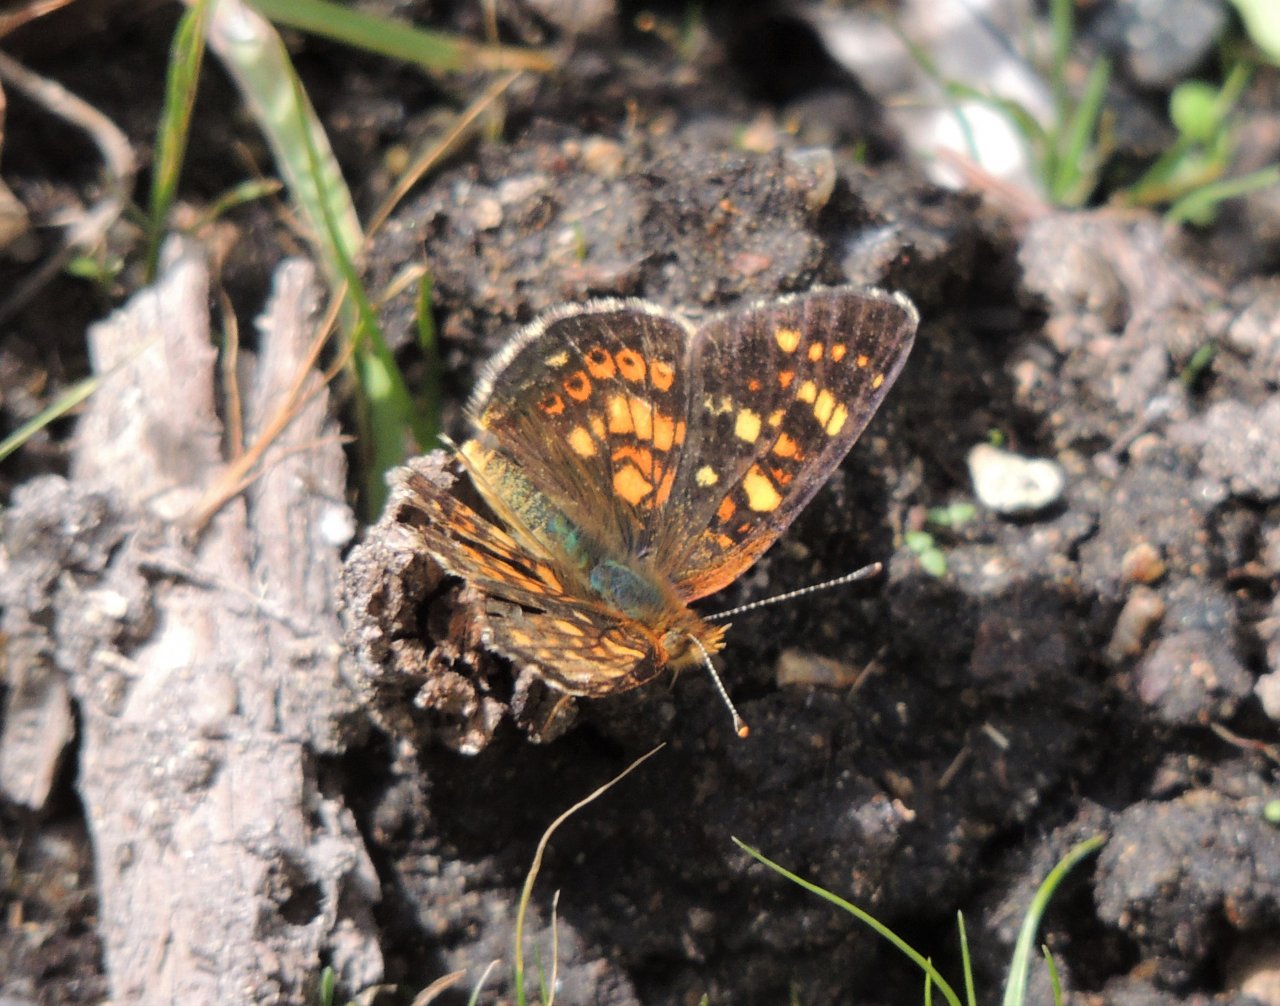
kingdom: Animalia
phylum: Arthropoda
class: Insecta
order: Lepidoptera
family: Nymphalidae
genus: Phyciodes
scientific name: Phyciodes tharos
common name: Field Crescent
